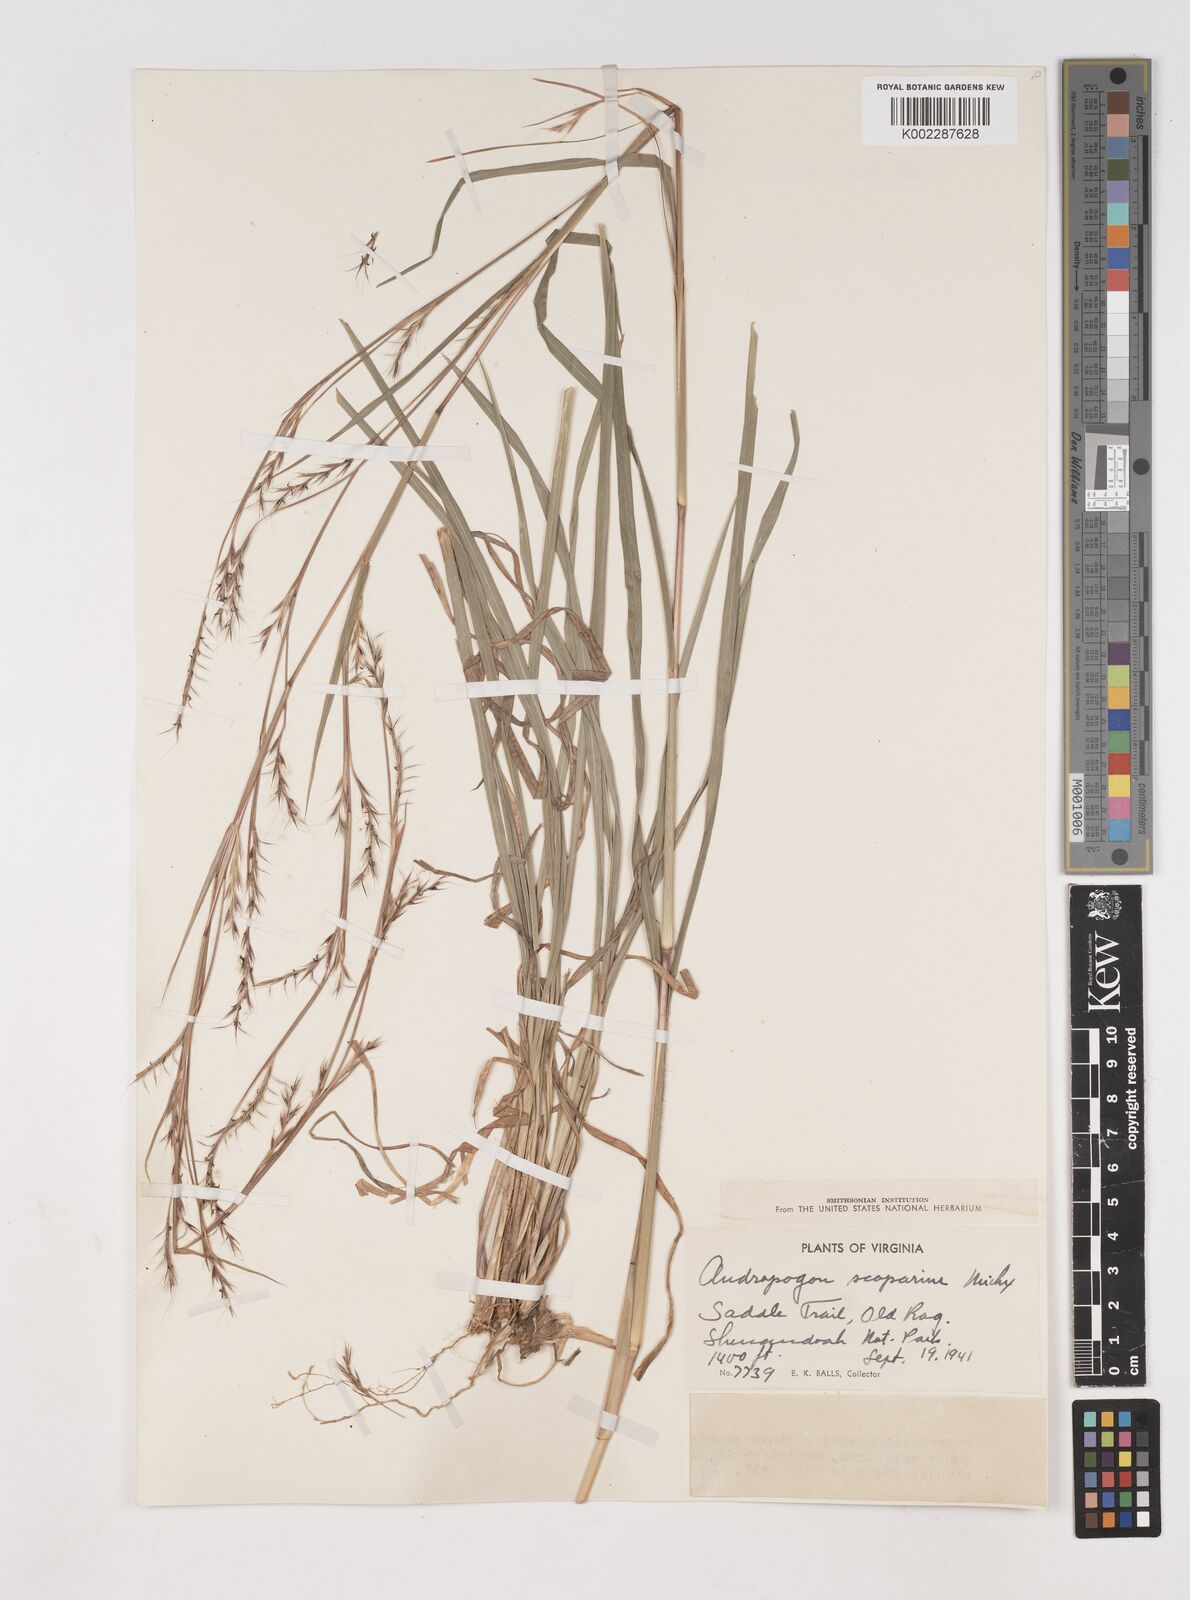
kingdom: Plantae
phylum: Tracheophyta
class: Liliopsida
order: Poales
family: Poaceae
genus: Schizachyrium
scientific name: Schizachyrium scoparium
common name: Little bluestem
